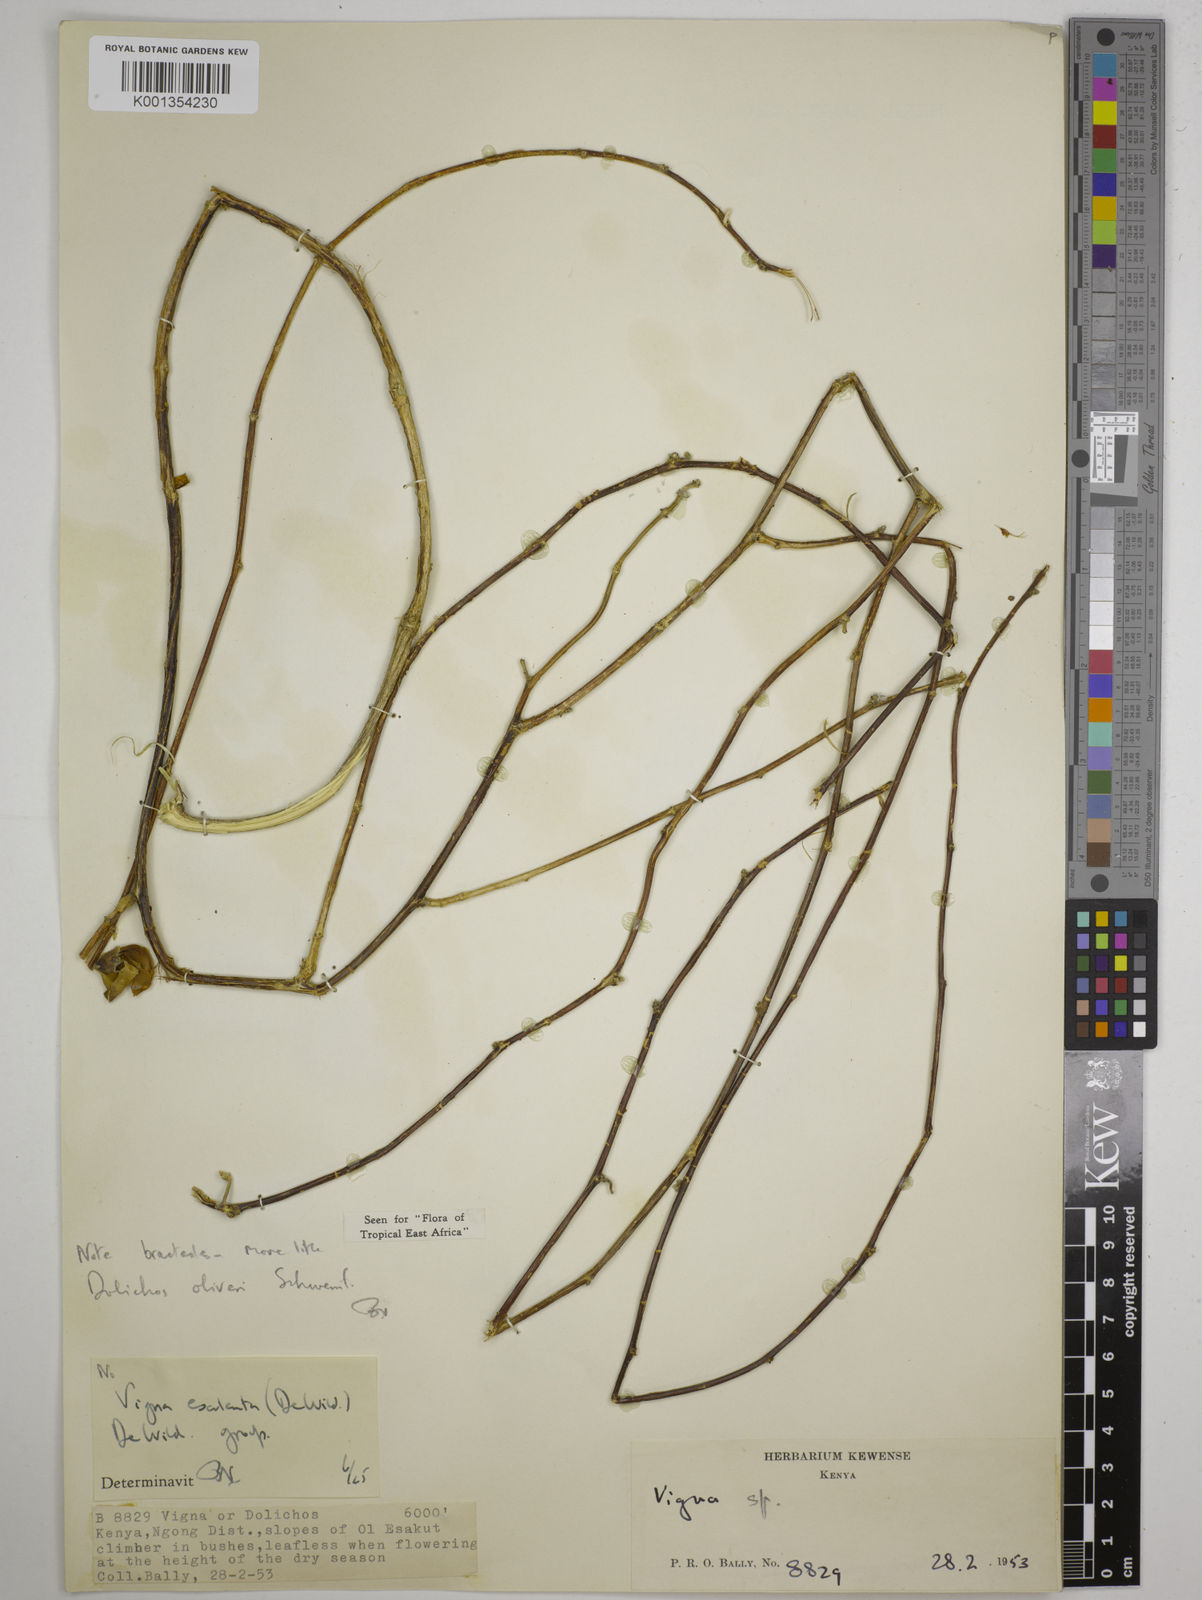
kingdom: Plantae
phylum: Tracheophyta
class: Magnoliopsida
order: Fabales
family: Fabaceae
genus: Dolichos
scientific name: Dolichos oliveri
